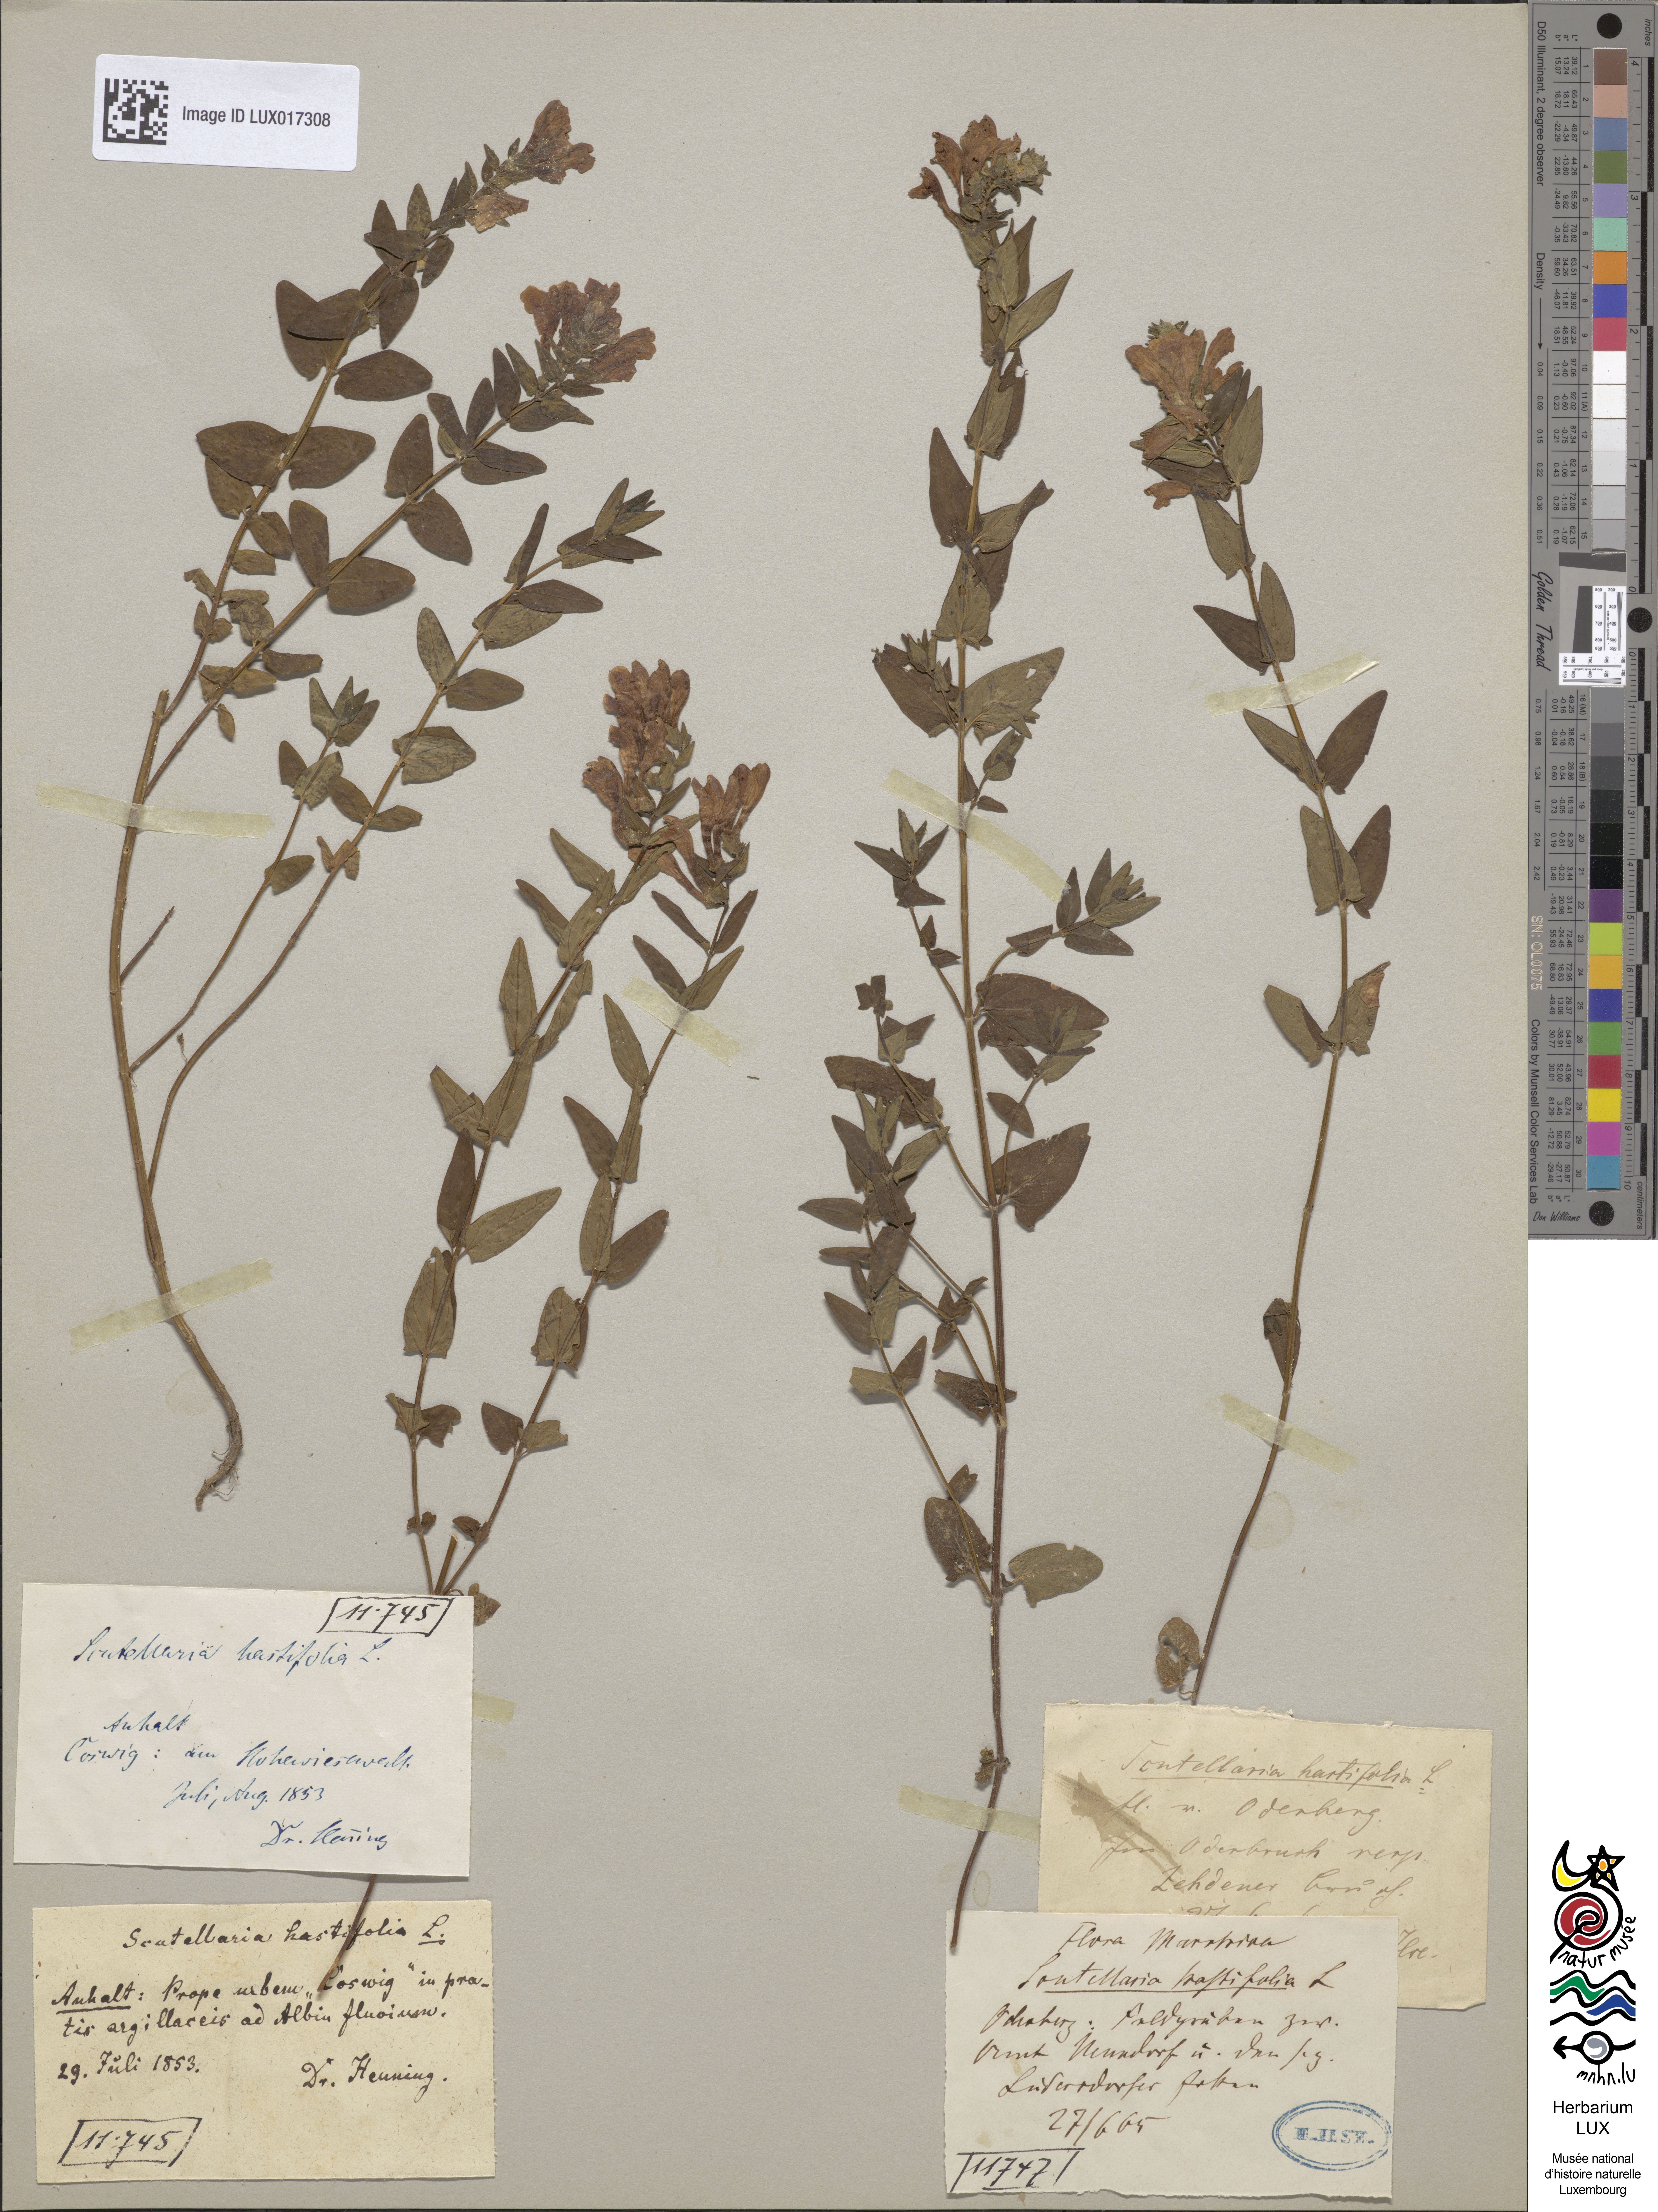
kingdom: Plantae
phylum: Tracheophyta
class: Magnoliopsida
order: Lamiales
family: Lamiaceae
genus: Scutellaria
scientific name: Scutellaria hastifolia
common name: Norfolk skullcap
